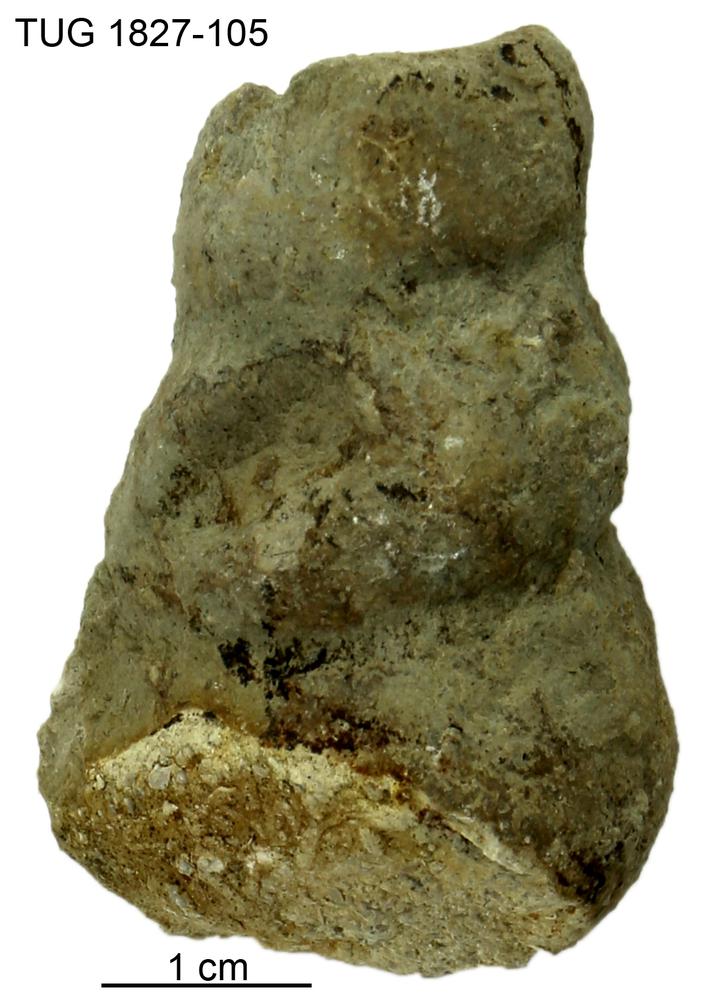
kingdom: Animalia
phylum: Mollusca
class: Gastropoda
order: Pleurotomariida
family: Murchisoniidae
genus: Hormotoma
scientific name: Hormotoma
